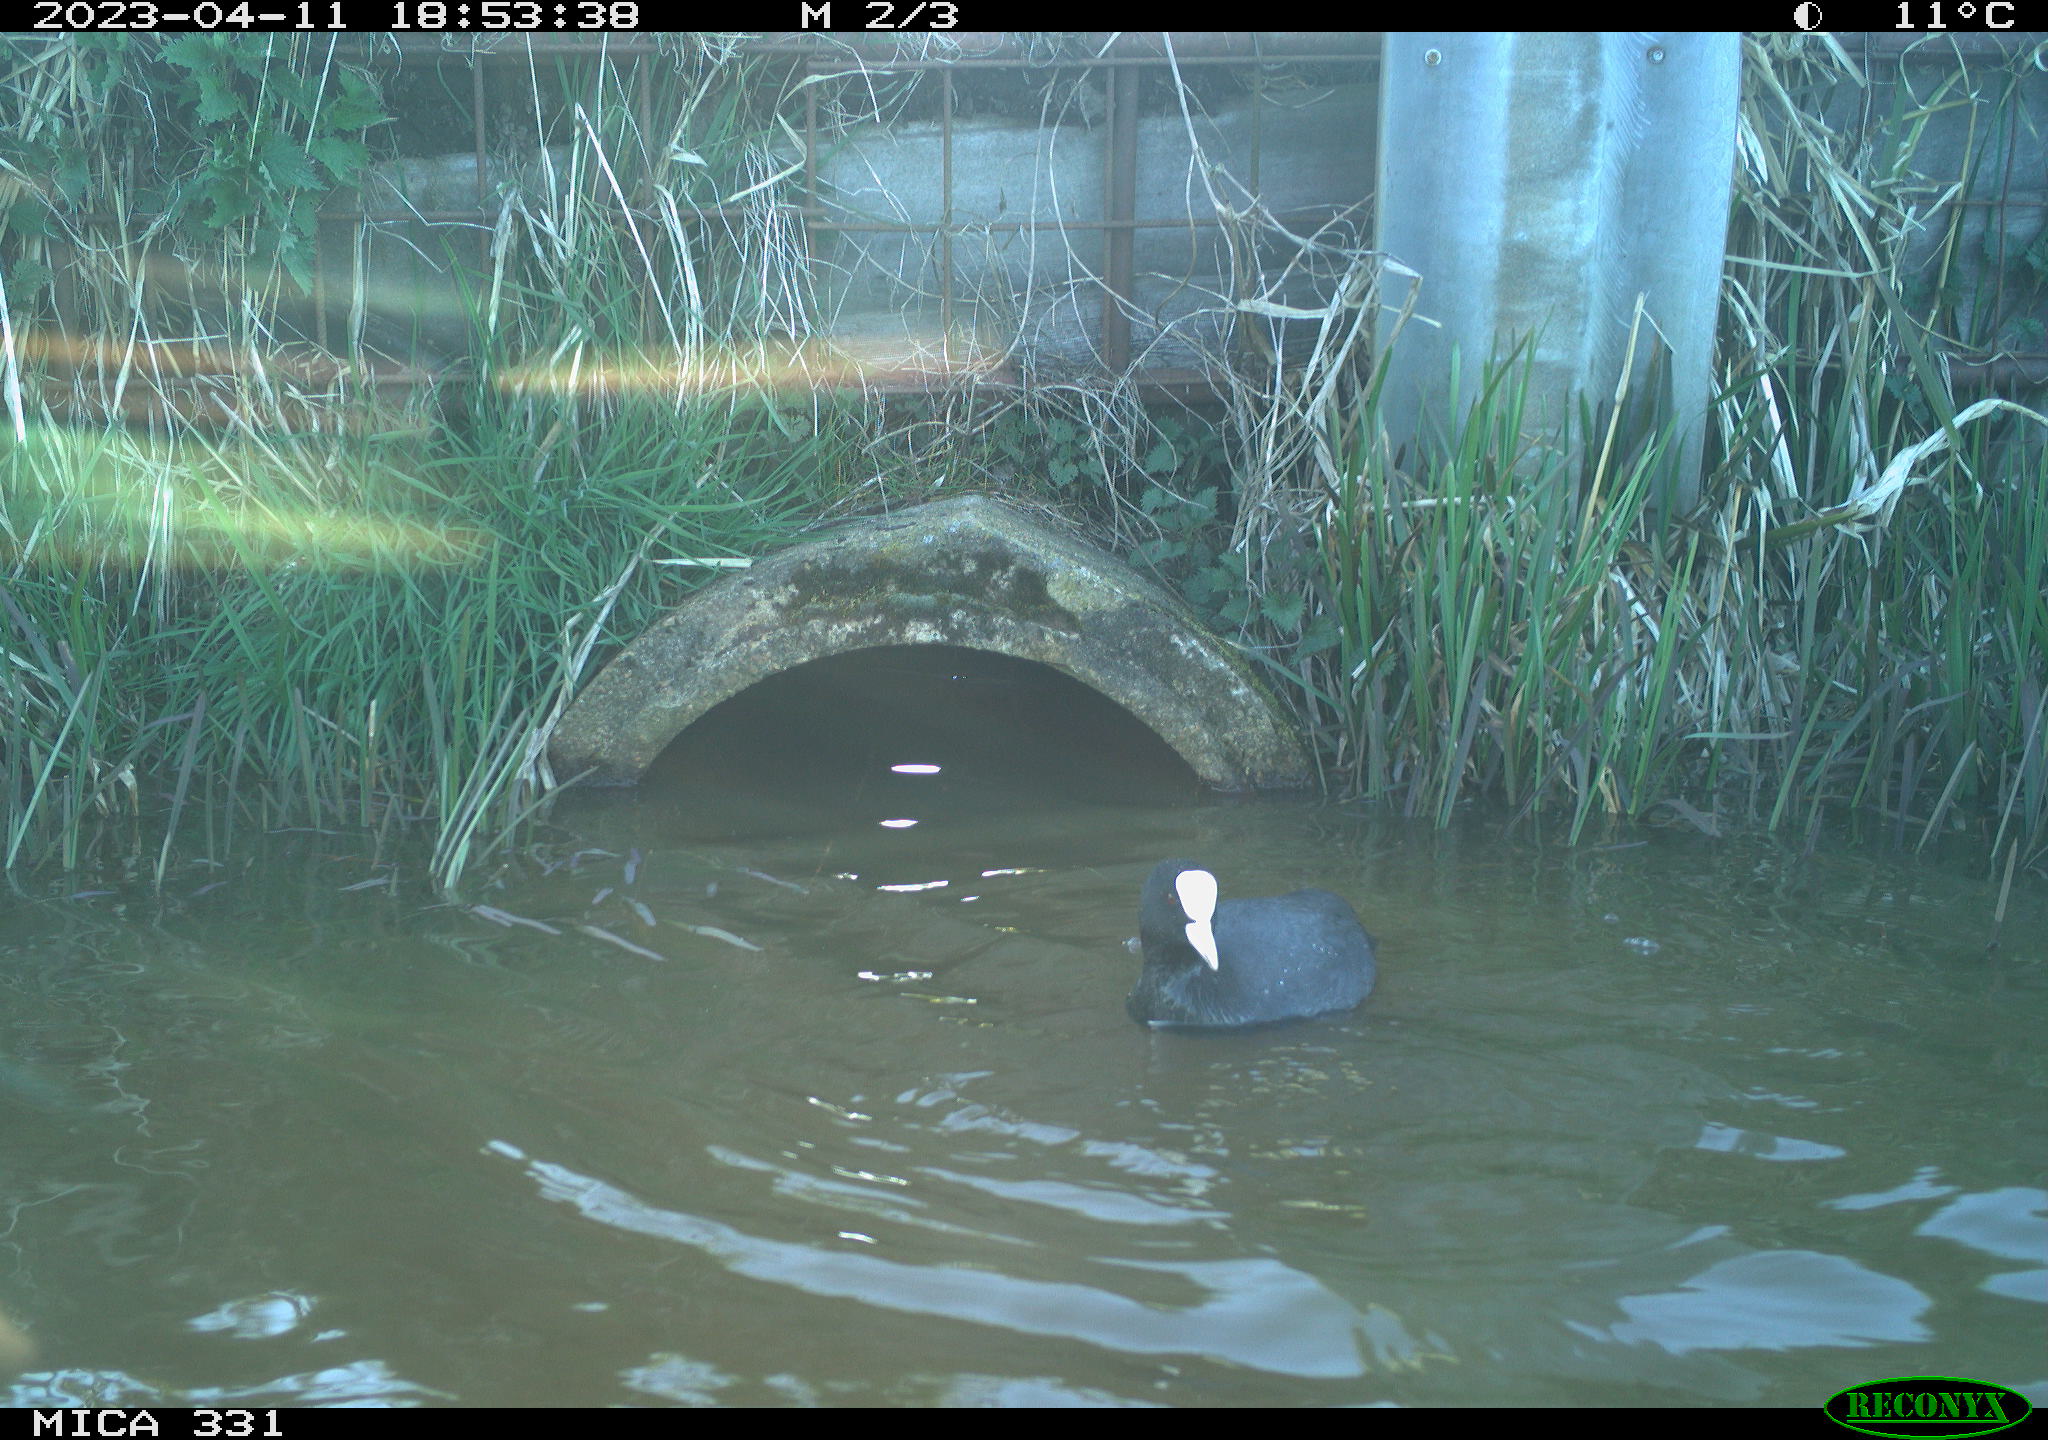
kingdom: Animalia
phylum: Chordata
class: Aves
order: Gruiformes
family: Rallidae
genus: Fulica
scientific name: Fulica atra
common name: Eurasian coot
